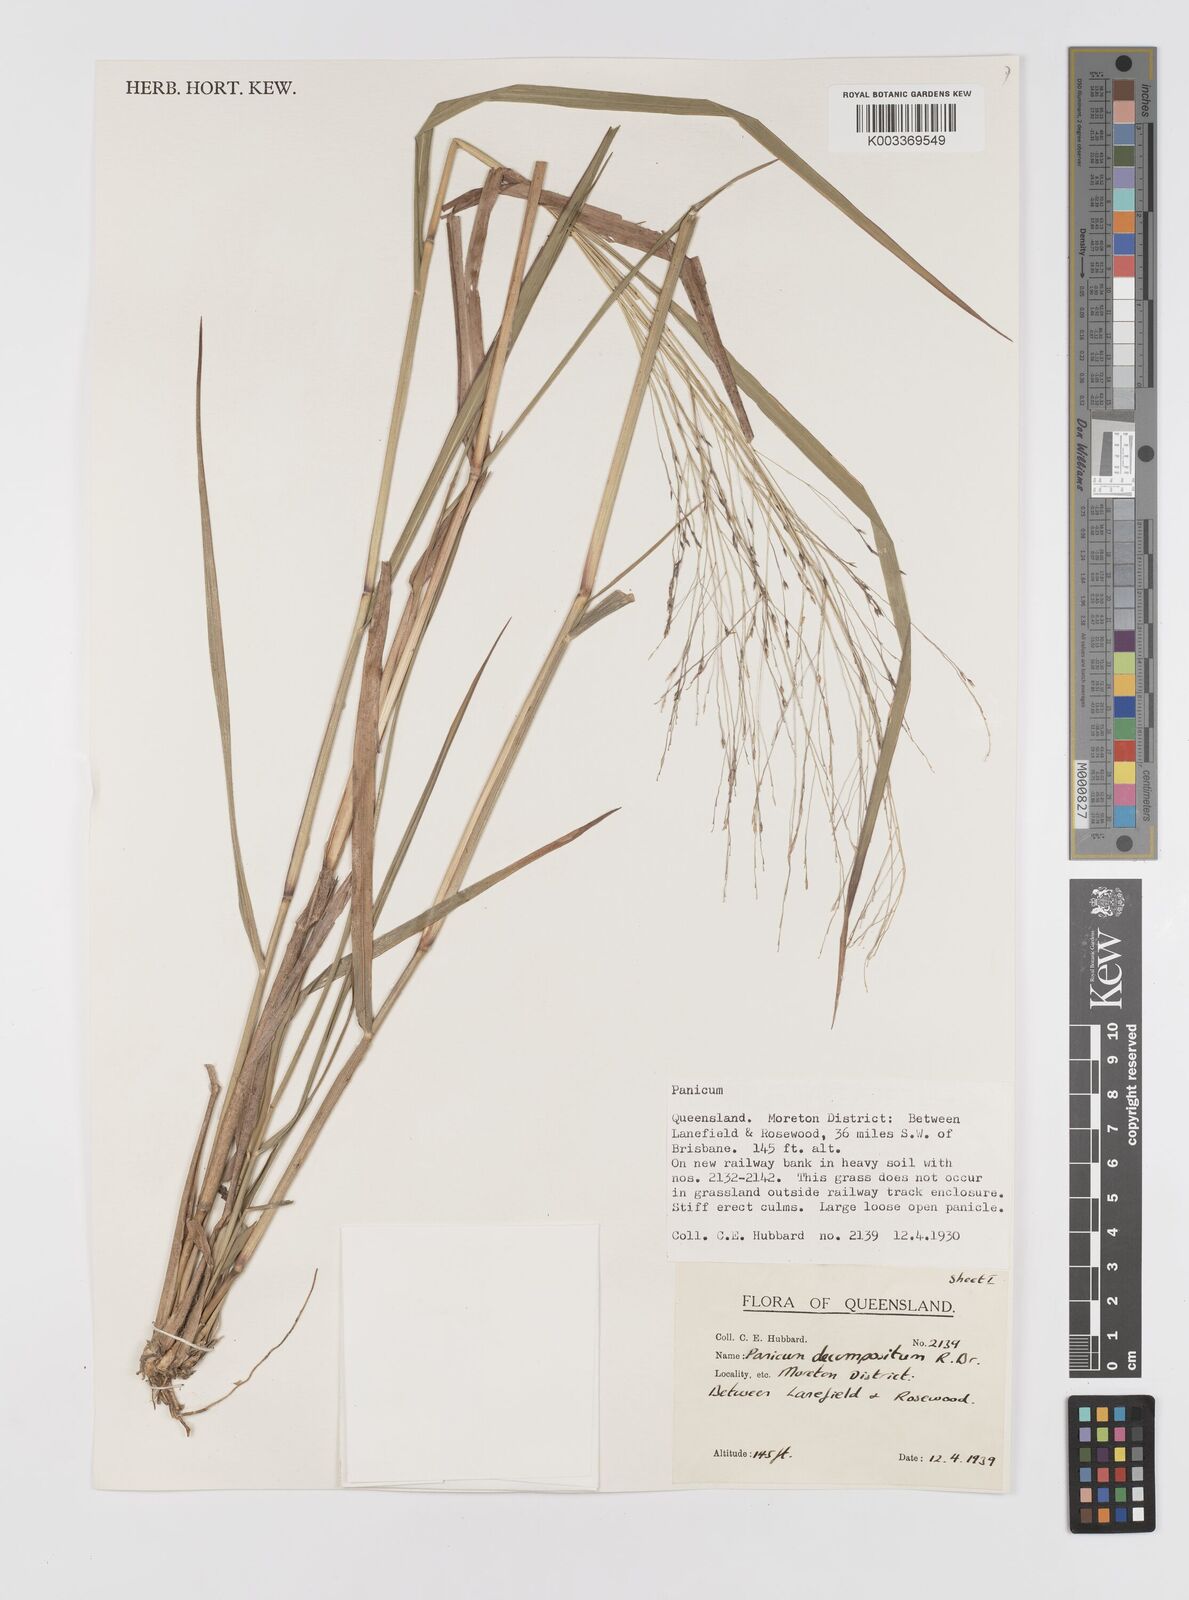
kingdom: Plantae
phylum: Tracheophyta
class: Liliopsida
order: Poales
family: Poaceae
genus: Panicum
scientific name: Panicum decompositum
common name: Australian millet
